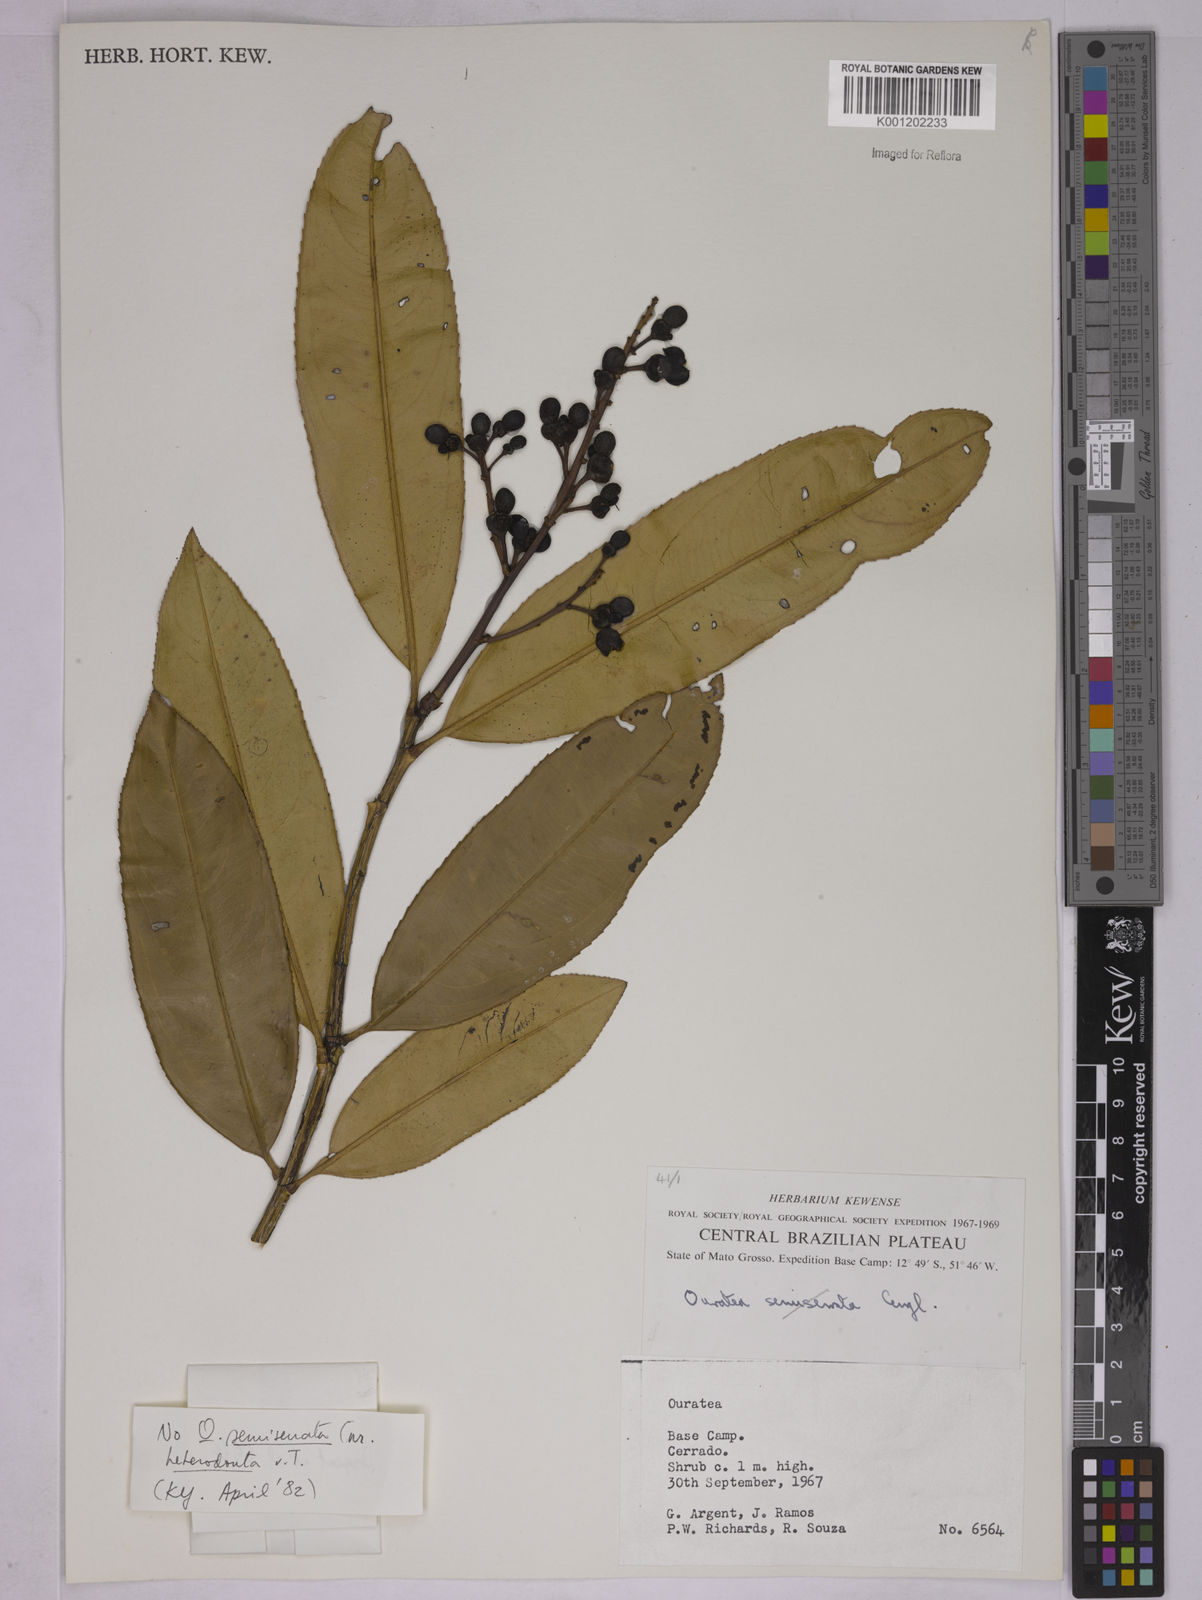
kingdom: Plantae
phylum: Tracheophyta
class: Magnoliopsida
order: Malpighiales
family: Ochnaceae
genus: Ouratea
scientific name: Ouratea
